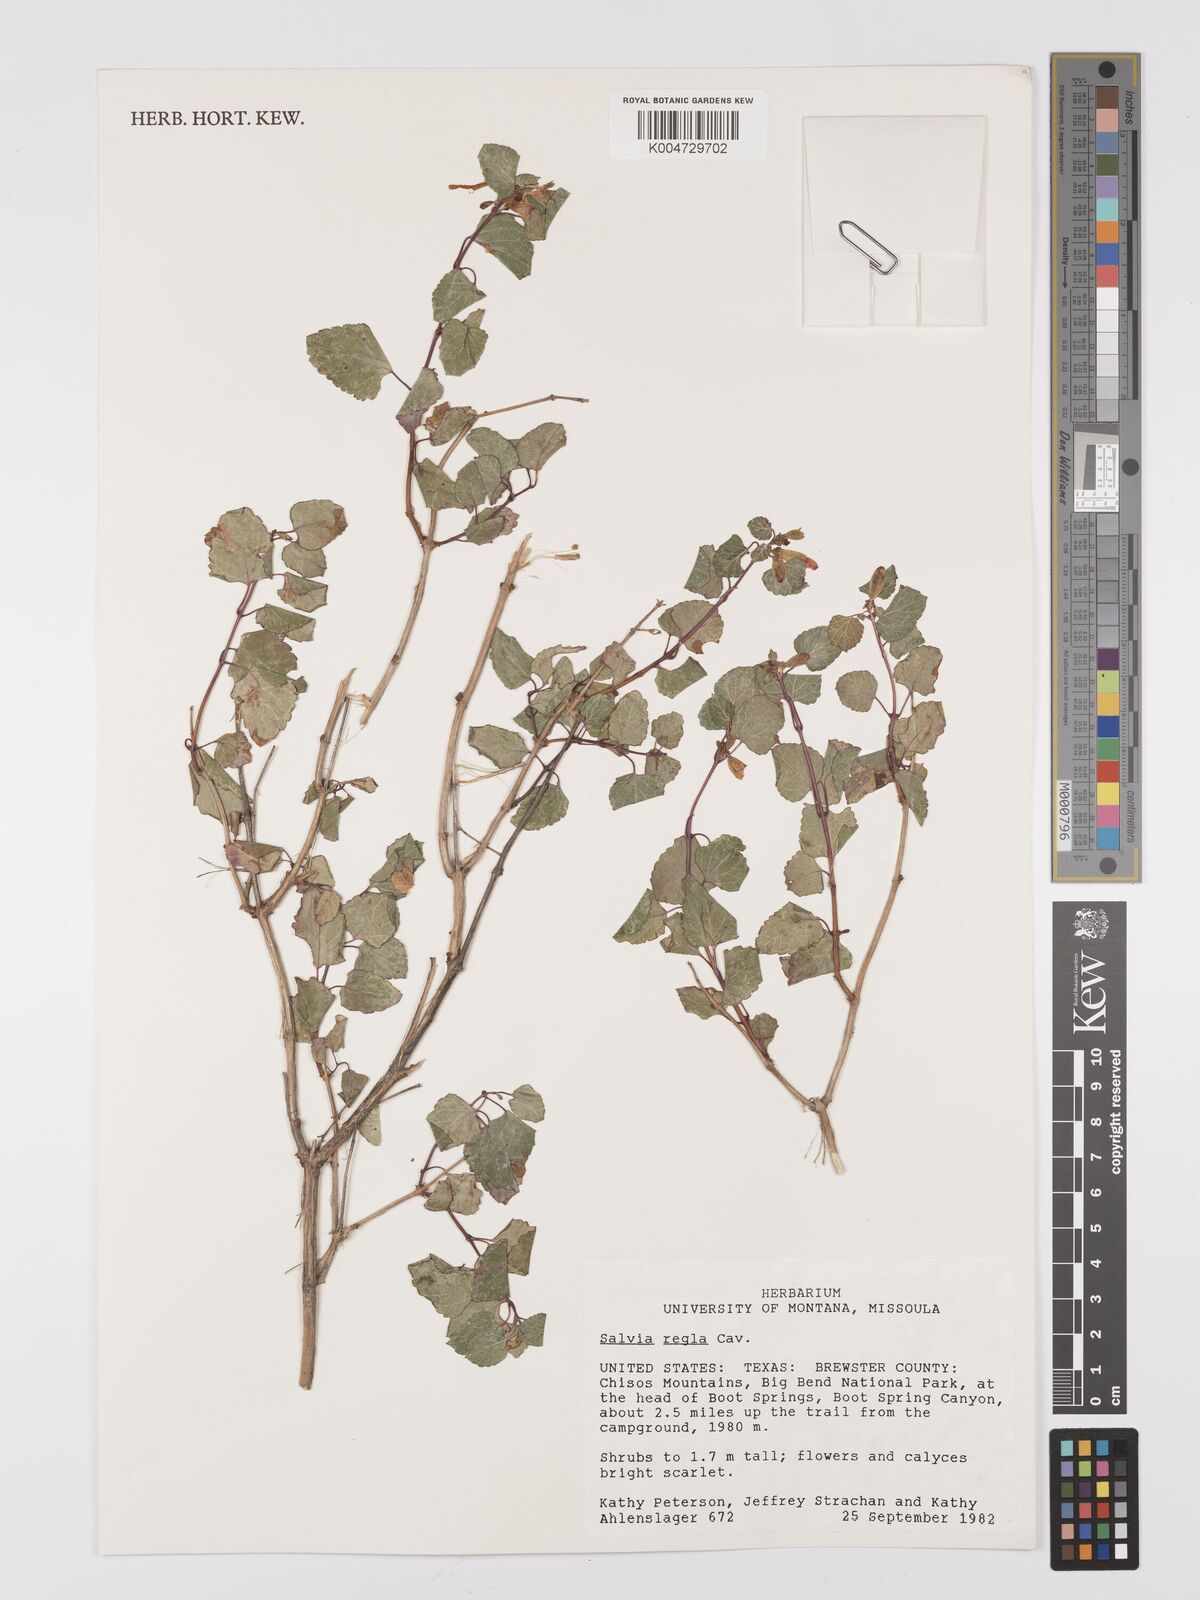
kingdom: Plantae
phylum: Tracheophyta
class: Magnoliopsida
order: Lamiales
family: Lamiaceae
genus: Salvia
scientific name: Salvia regla
